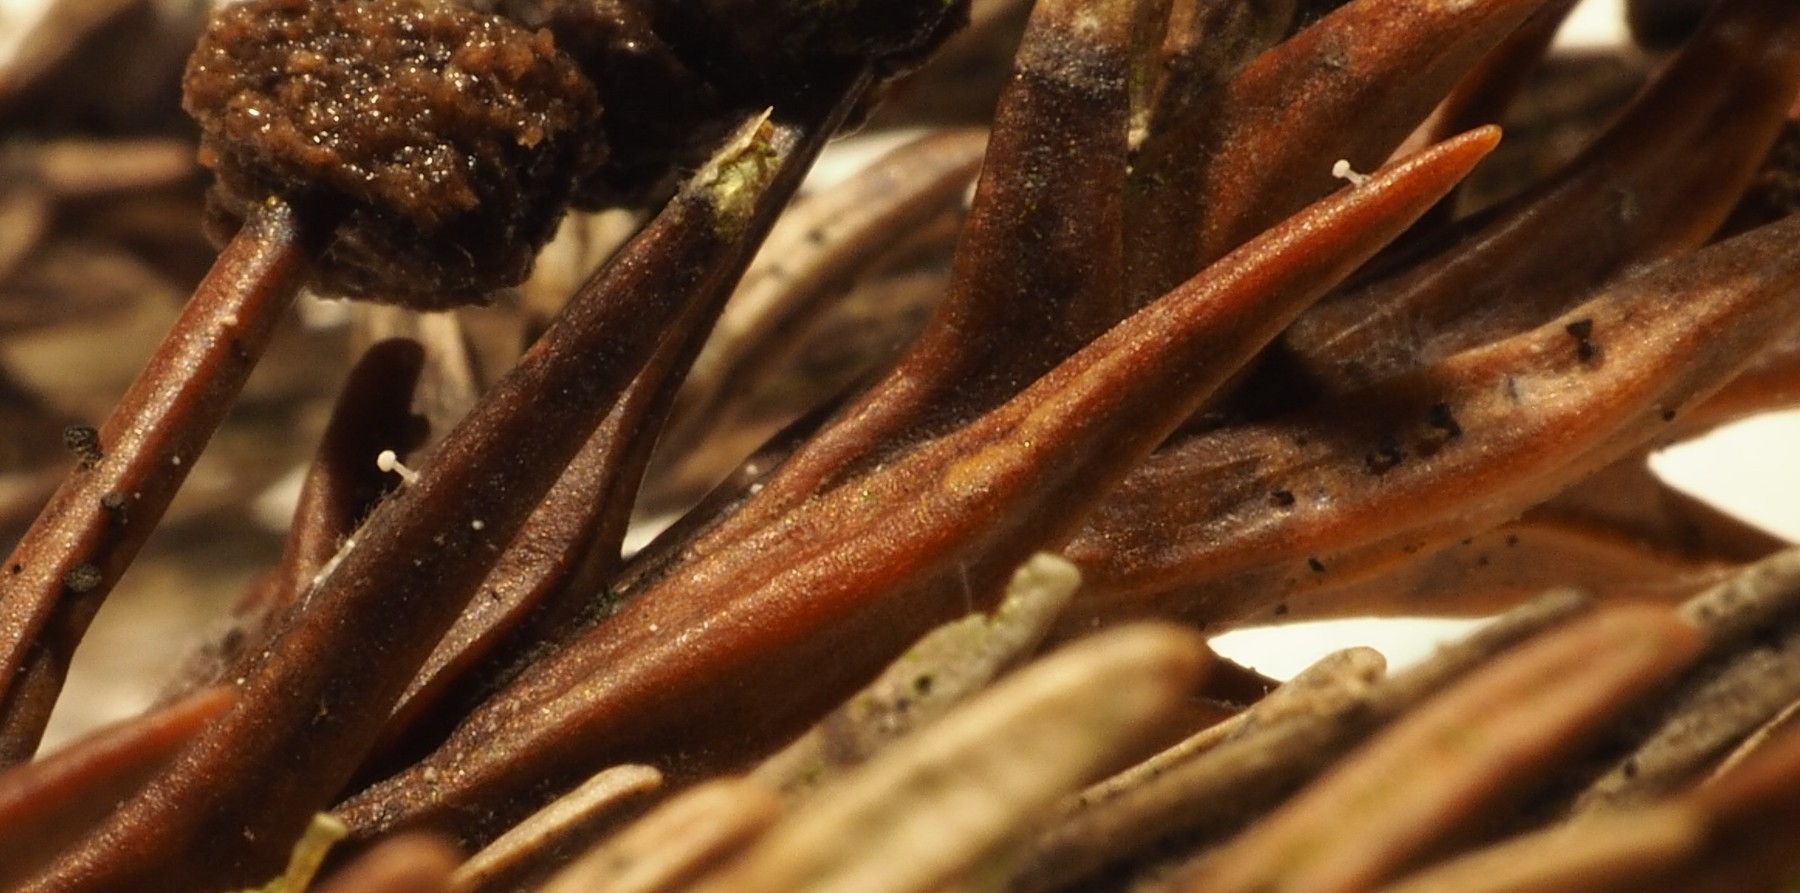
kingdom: Fungi
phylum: Basidiomycota
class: Agaricomycetes
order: Agaricales
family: Physalacriaceae
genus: Physalacria
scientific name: Physalacria cryptomeriae
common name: japangran-boldkølle
